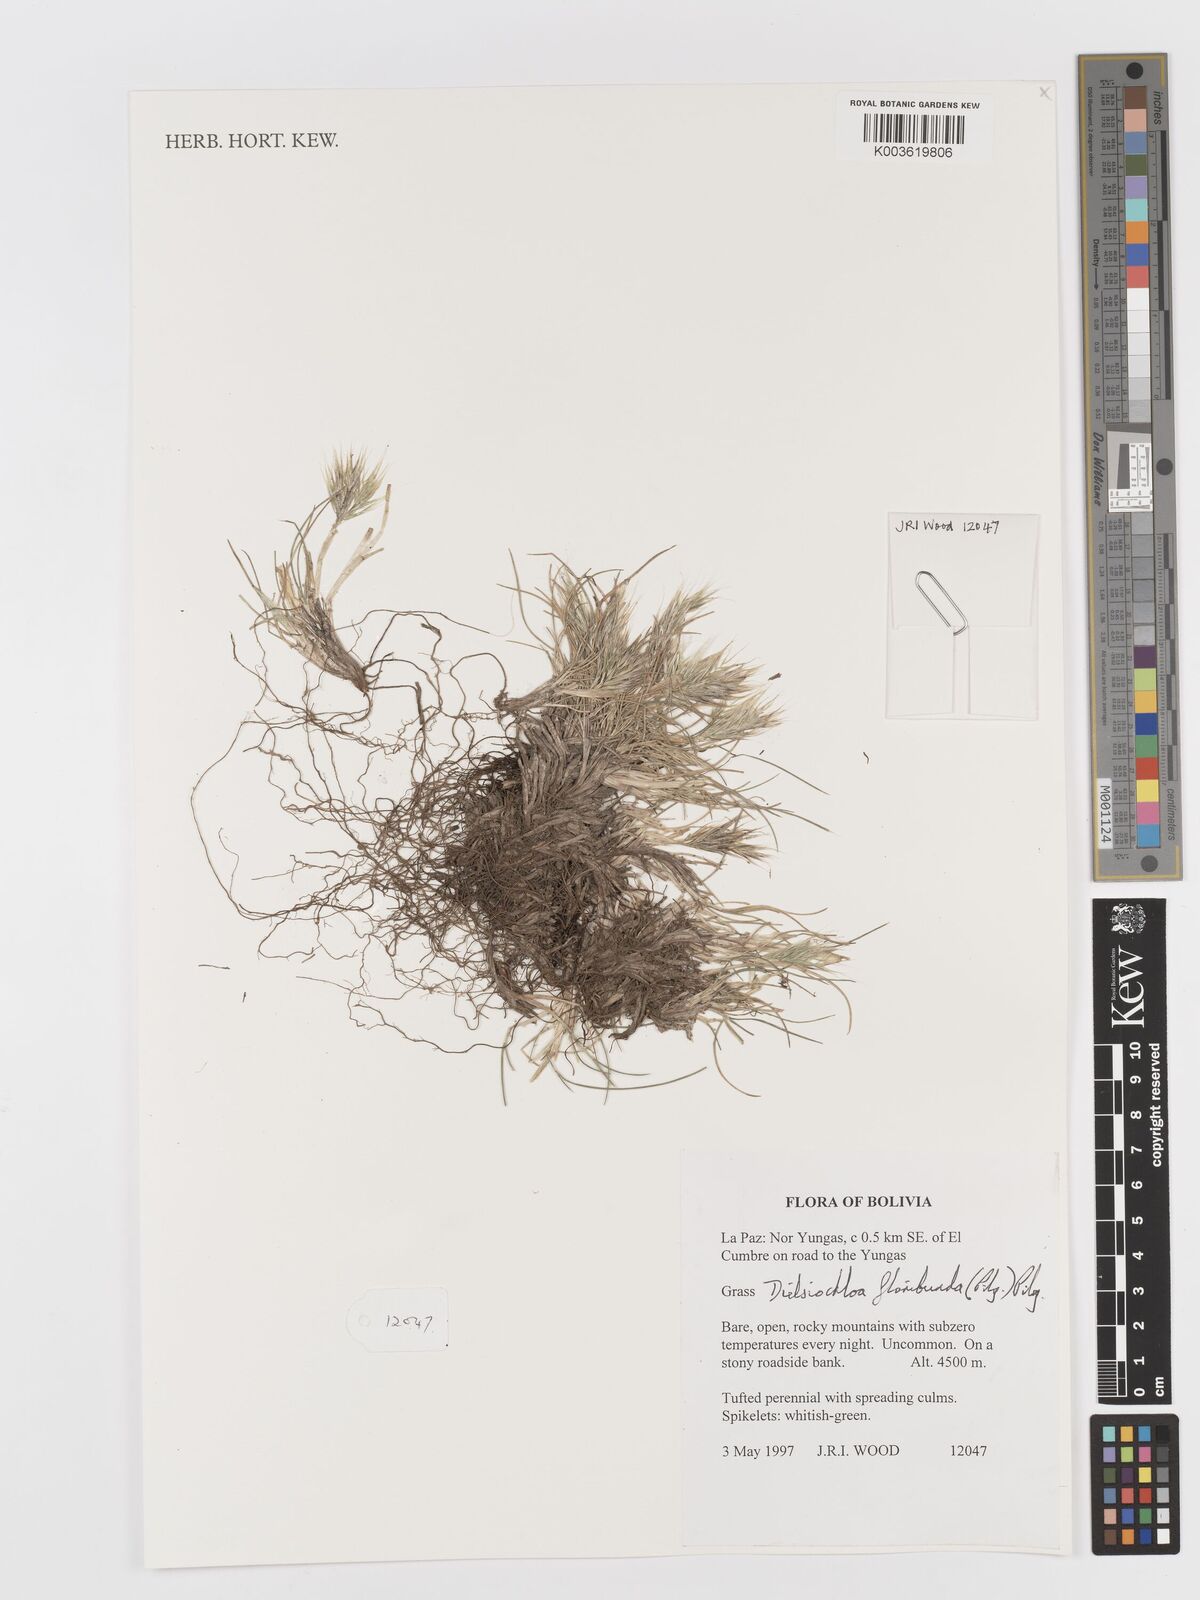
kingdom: Plantae
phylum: Tracheophyta
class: Liliopsida
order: Poales
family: Poaceae
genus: Festuca
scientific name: Festuca floribunda
